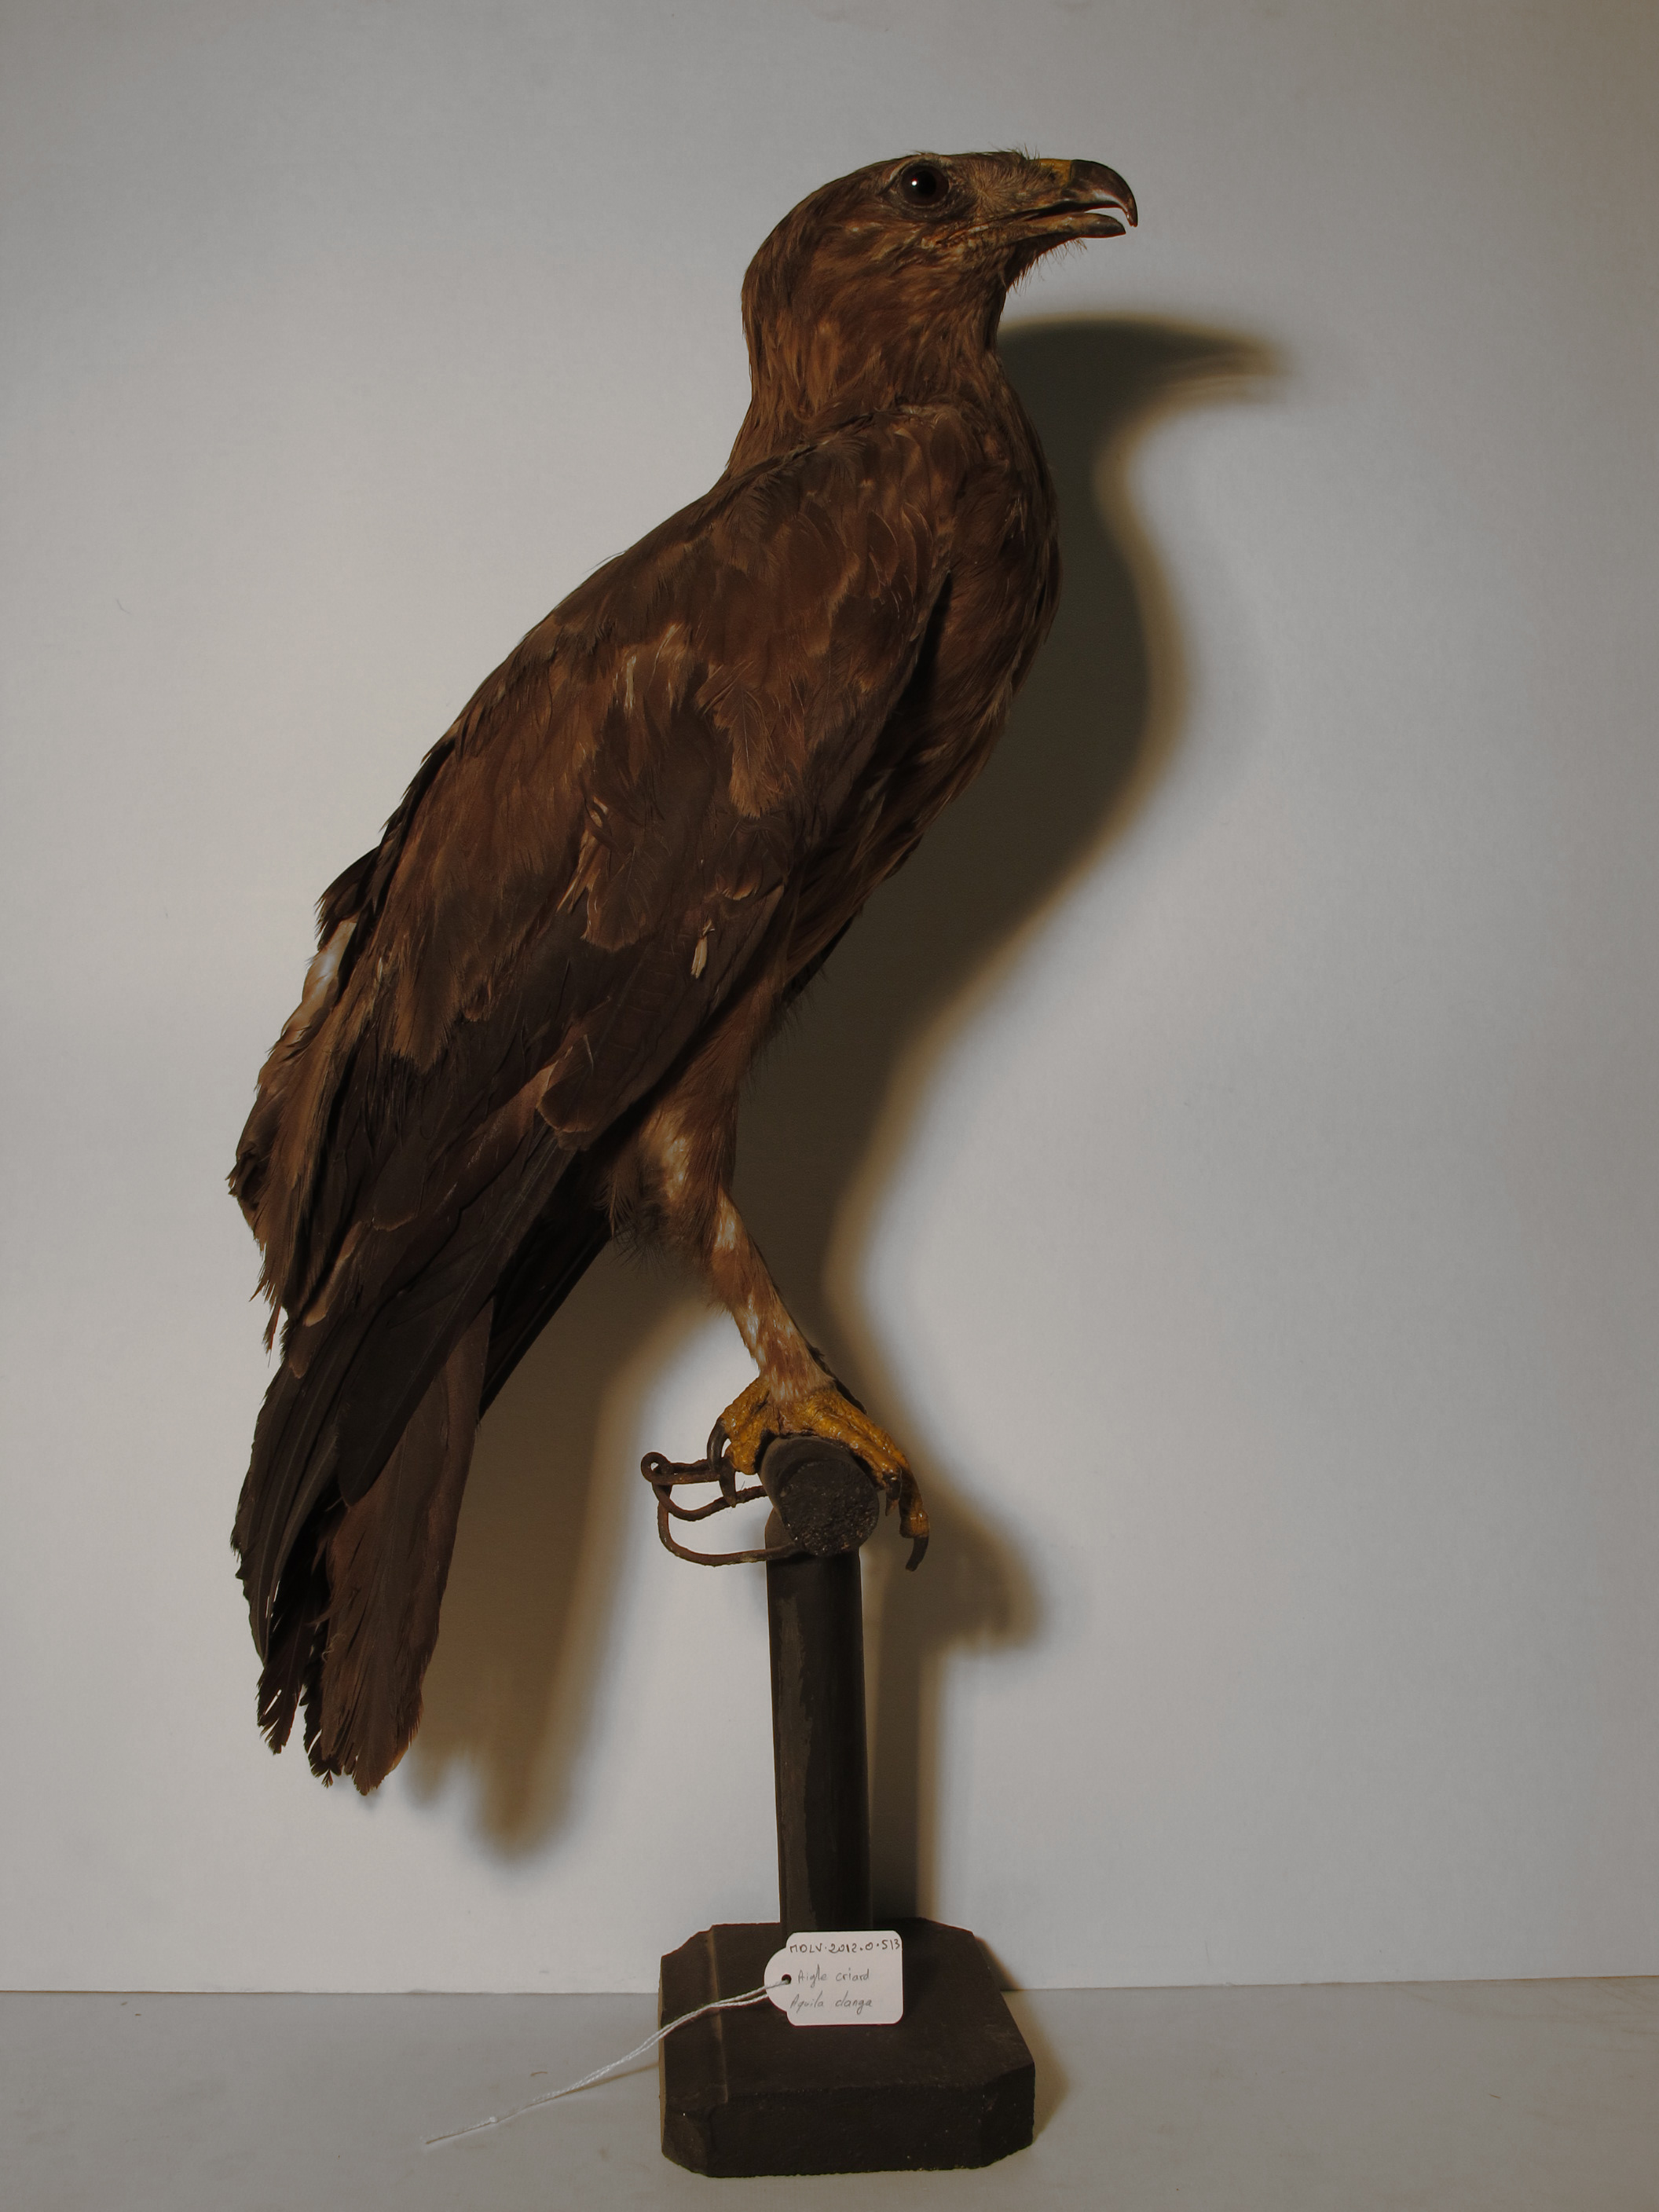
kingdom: Animalia
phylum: Chordata
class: Aves
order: Accipitriformes
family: Accipitridae
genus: Aquila
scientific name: Aquila clanga
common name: Greater Spotted Eagle
